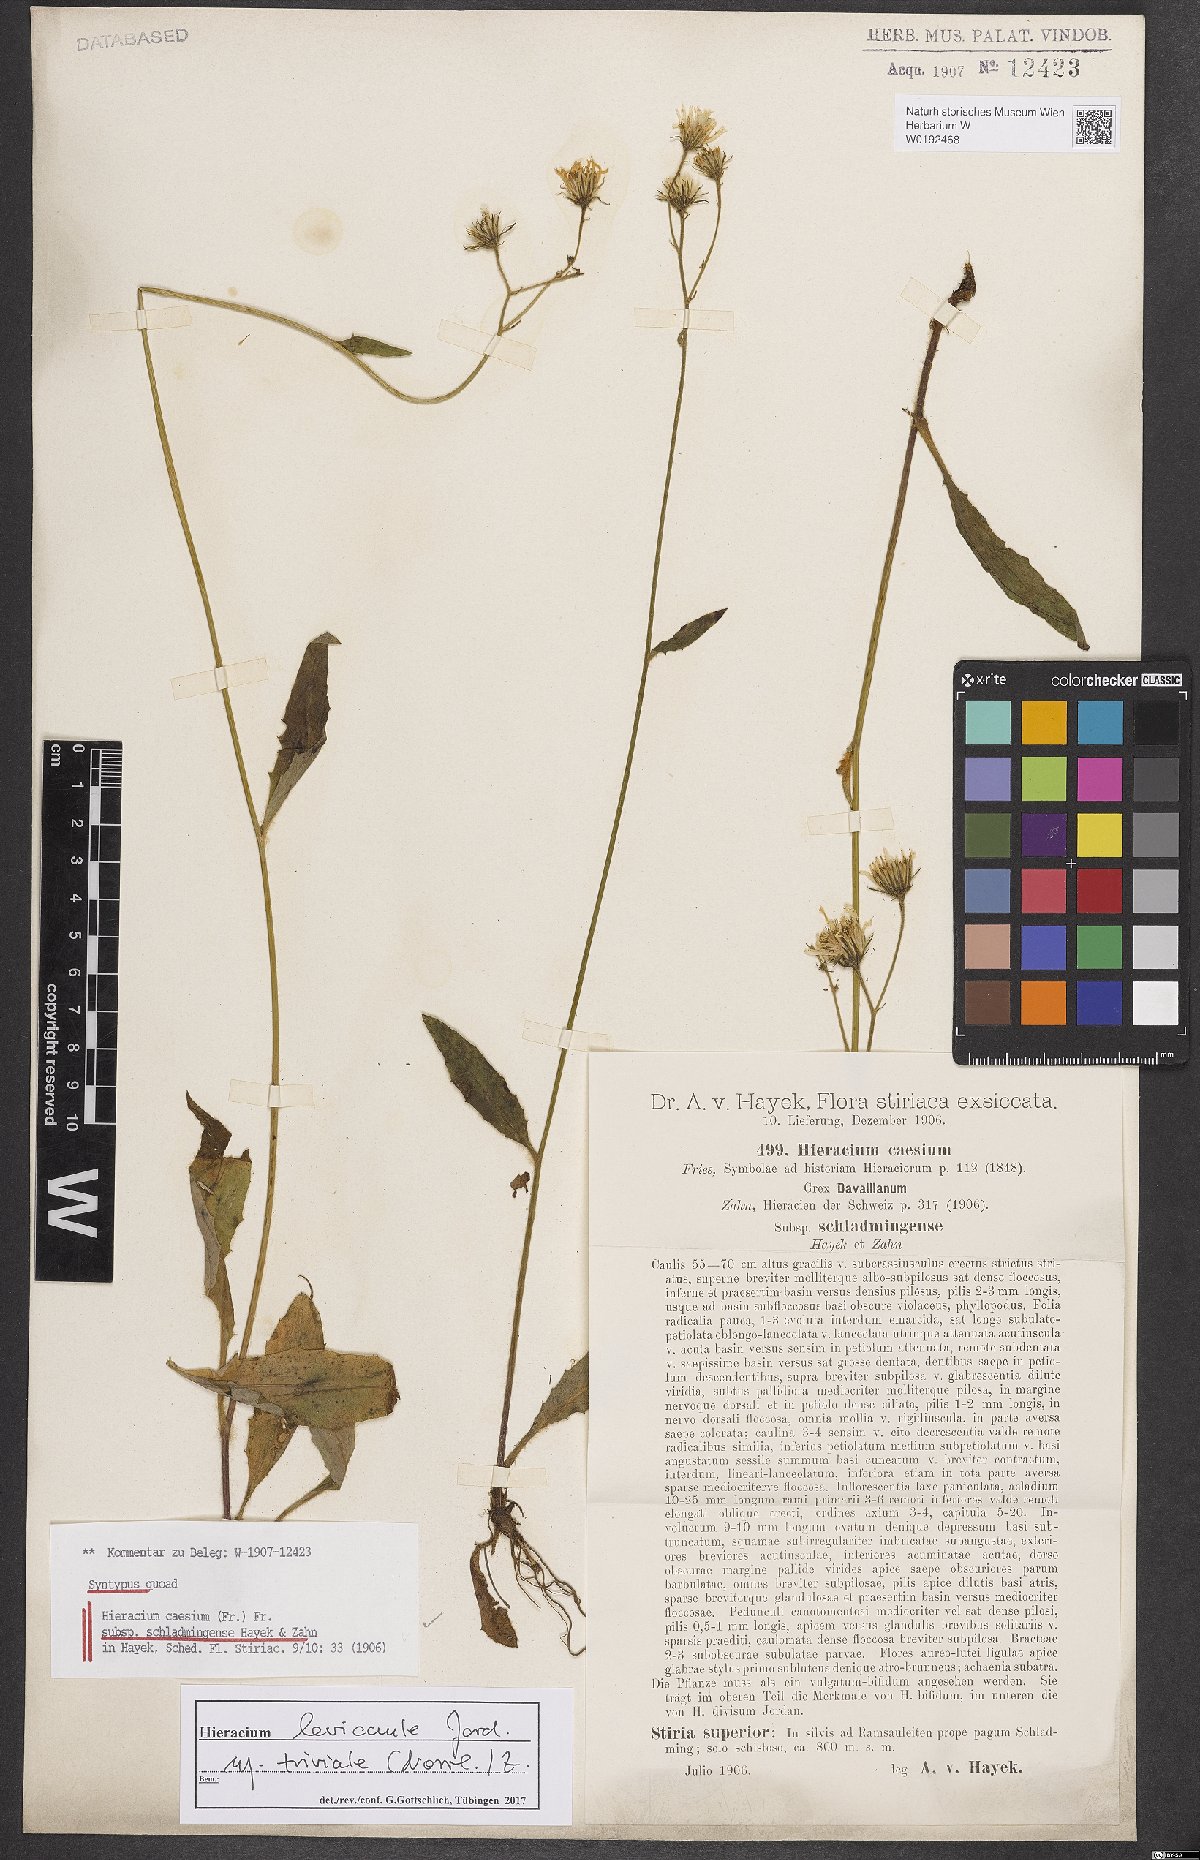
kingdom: Plantae
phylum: Tracheophyta
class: Magnoliopsida
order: Asterales
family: Asteraceae
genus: Hieracium
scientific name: Hieracium caesium
